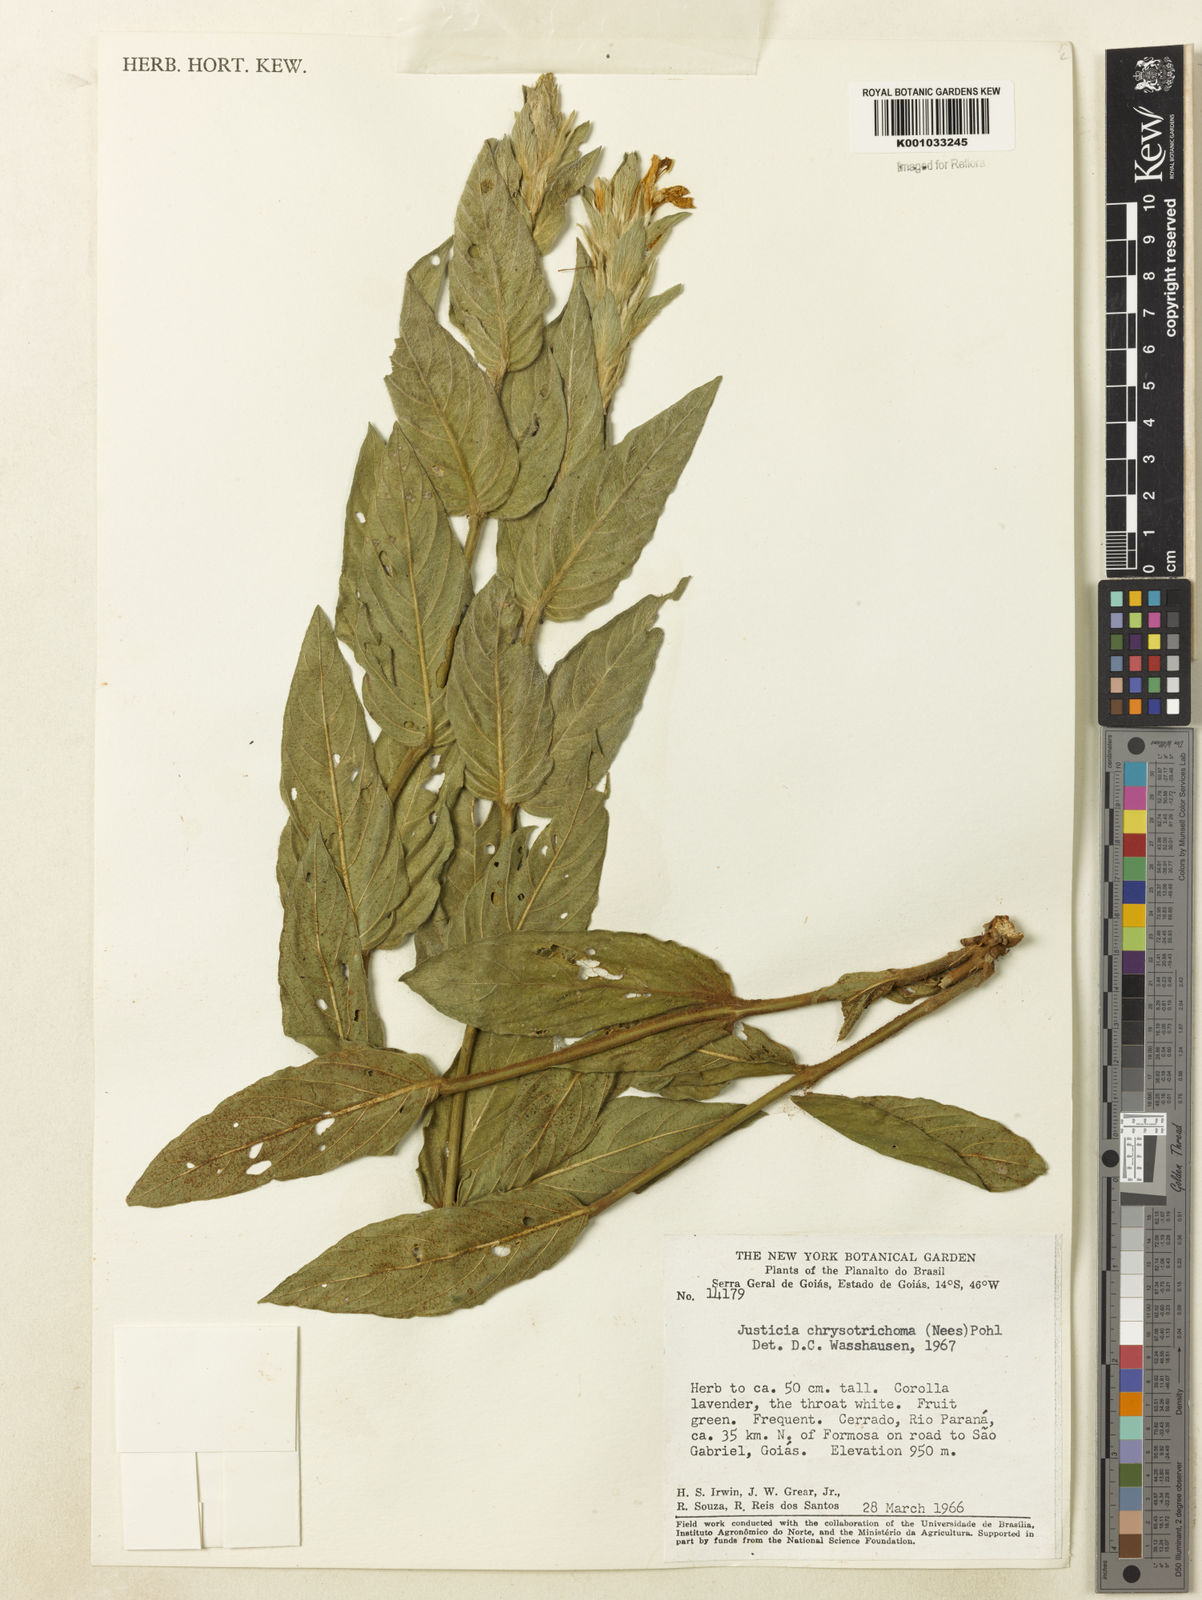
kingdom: Plantae
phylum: Tracheophyta
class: Magnoliopsida
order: Lamiales
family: Acanthaceae
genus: Justicia
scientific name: Justicia chrysotrichoma
